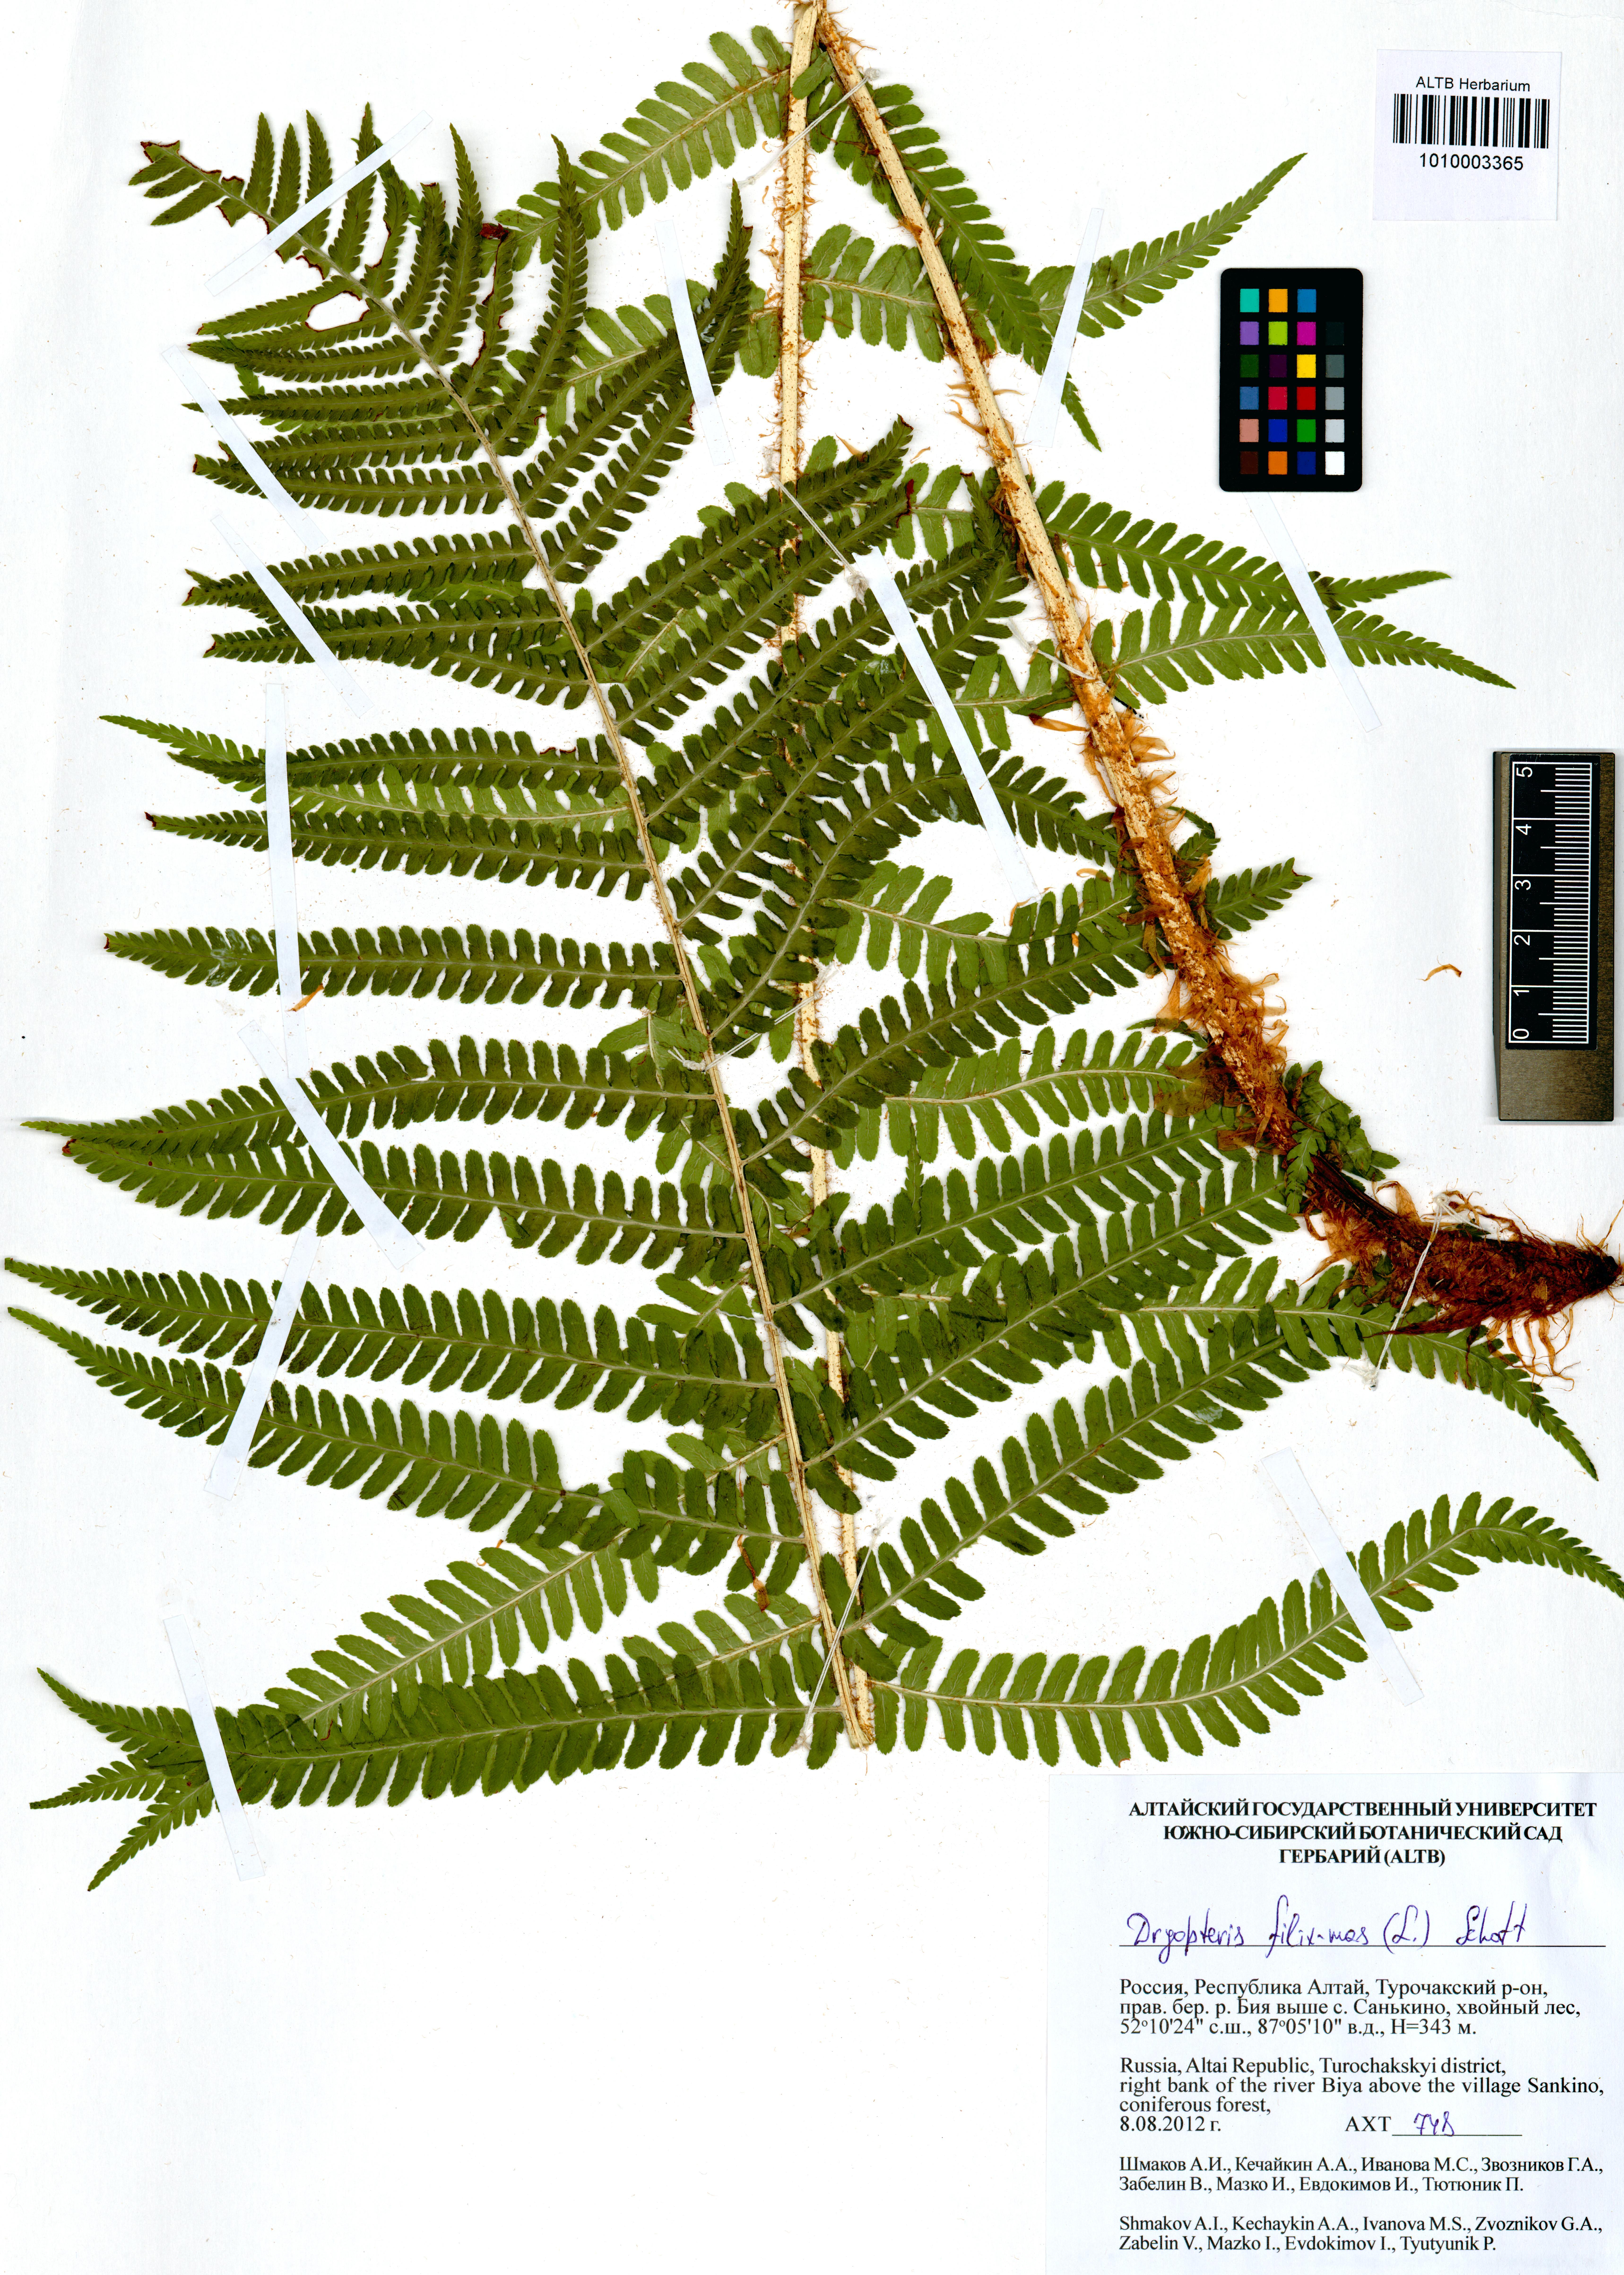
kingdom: Plantae
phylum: Tracheophyta
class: Polypodiopsida
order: Polypodiales
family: Dryopteridaceae
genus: Dryopteris
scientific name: Dryopteris filix-mas
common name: Male fern
